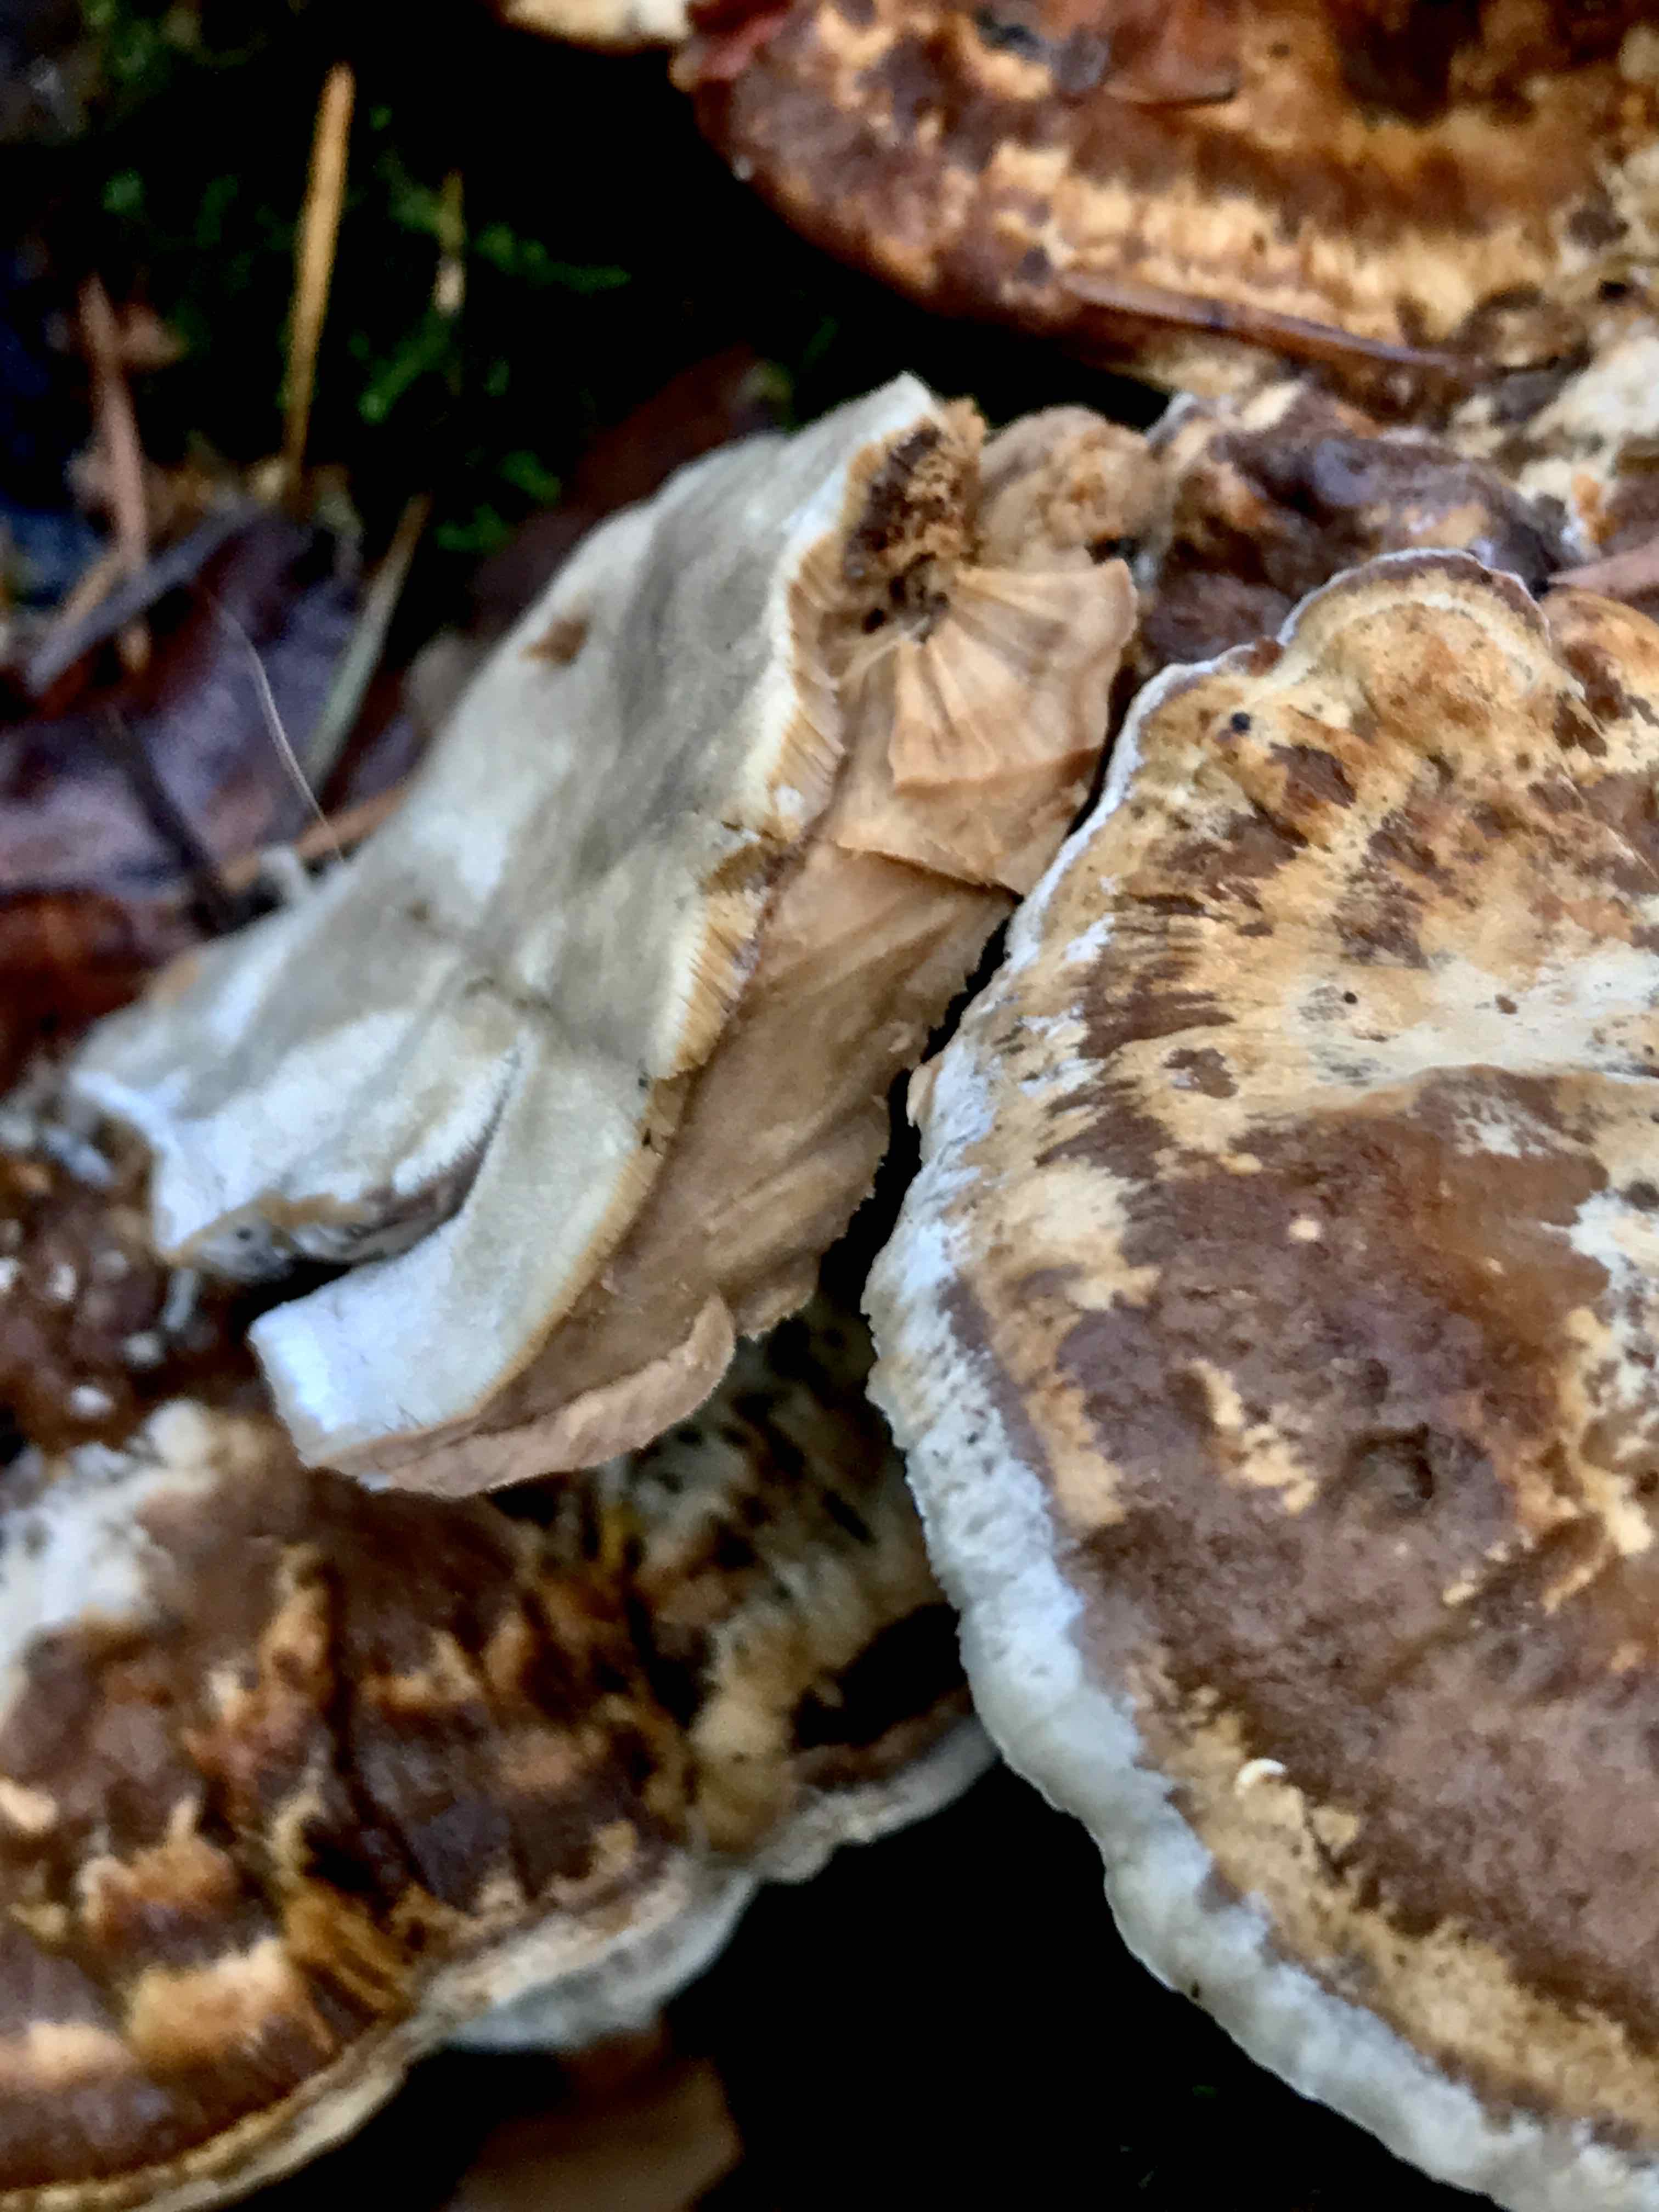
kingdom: Fungi
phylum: Basidiomycota
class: Agaricomycetes
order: Polyporales
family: Phanerochaetaceae
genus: Bjerkandera
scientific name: Bjerkandera fumosa
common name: grågul sodporesvamp
